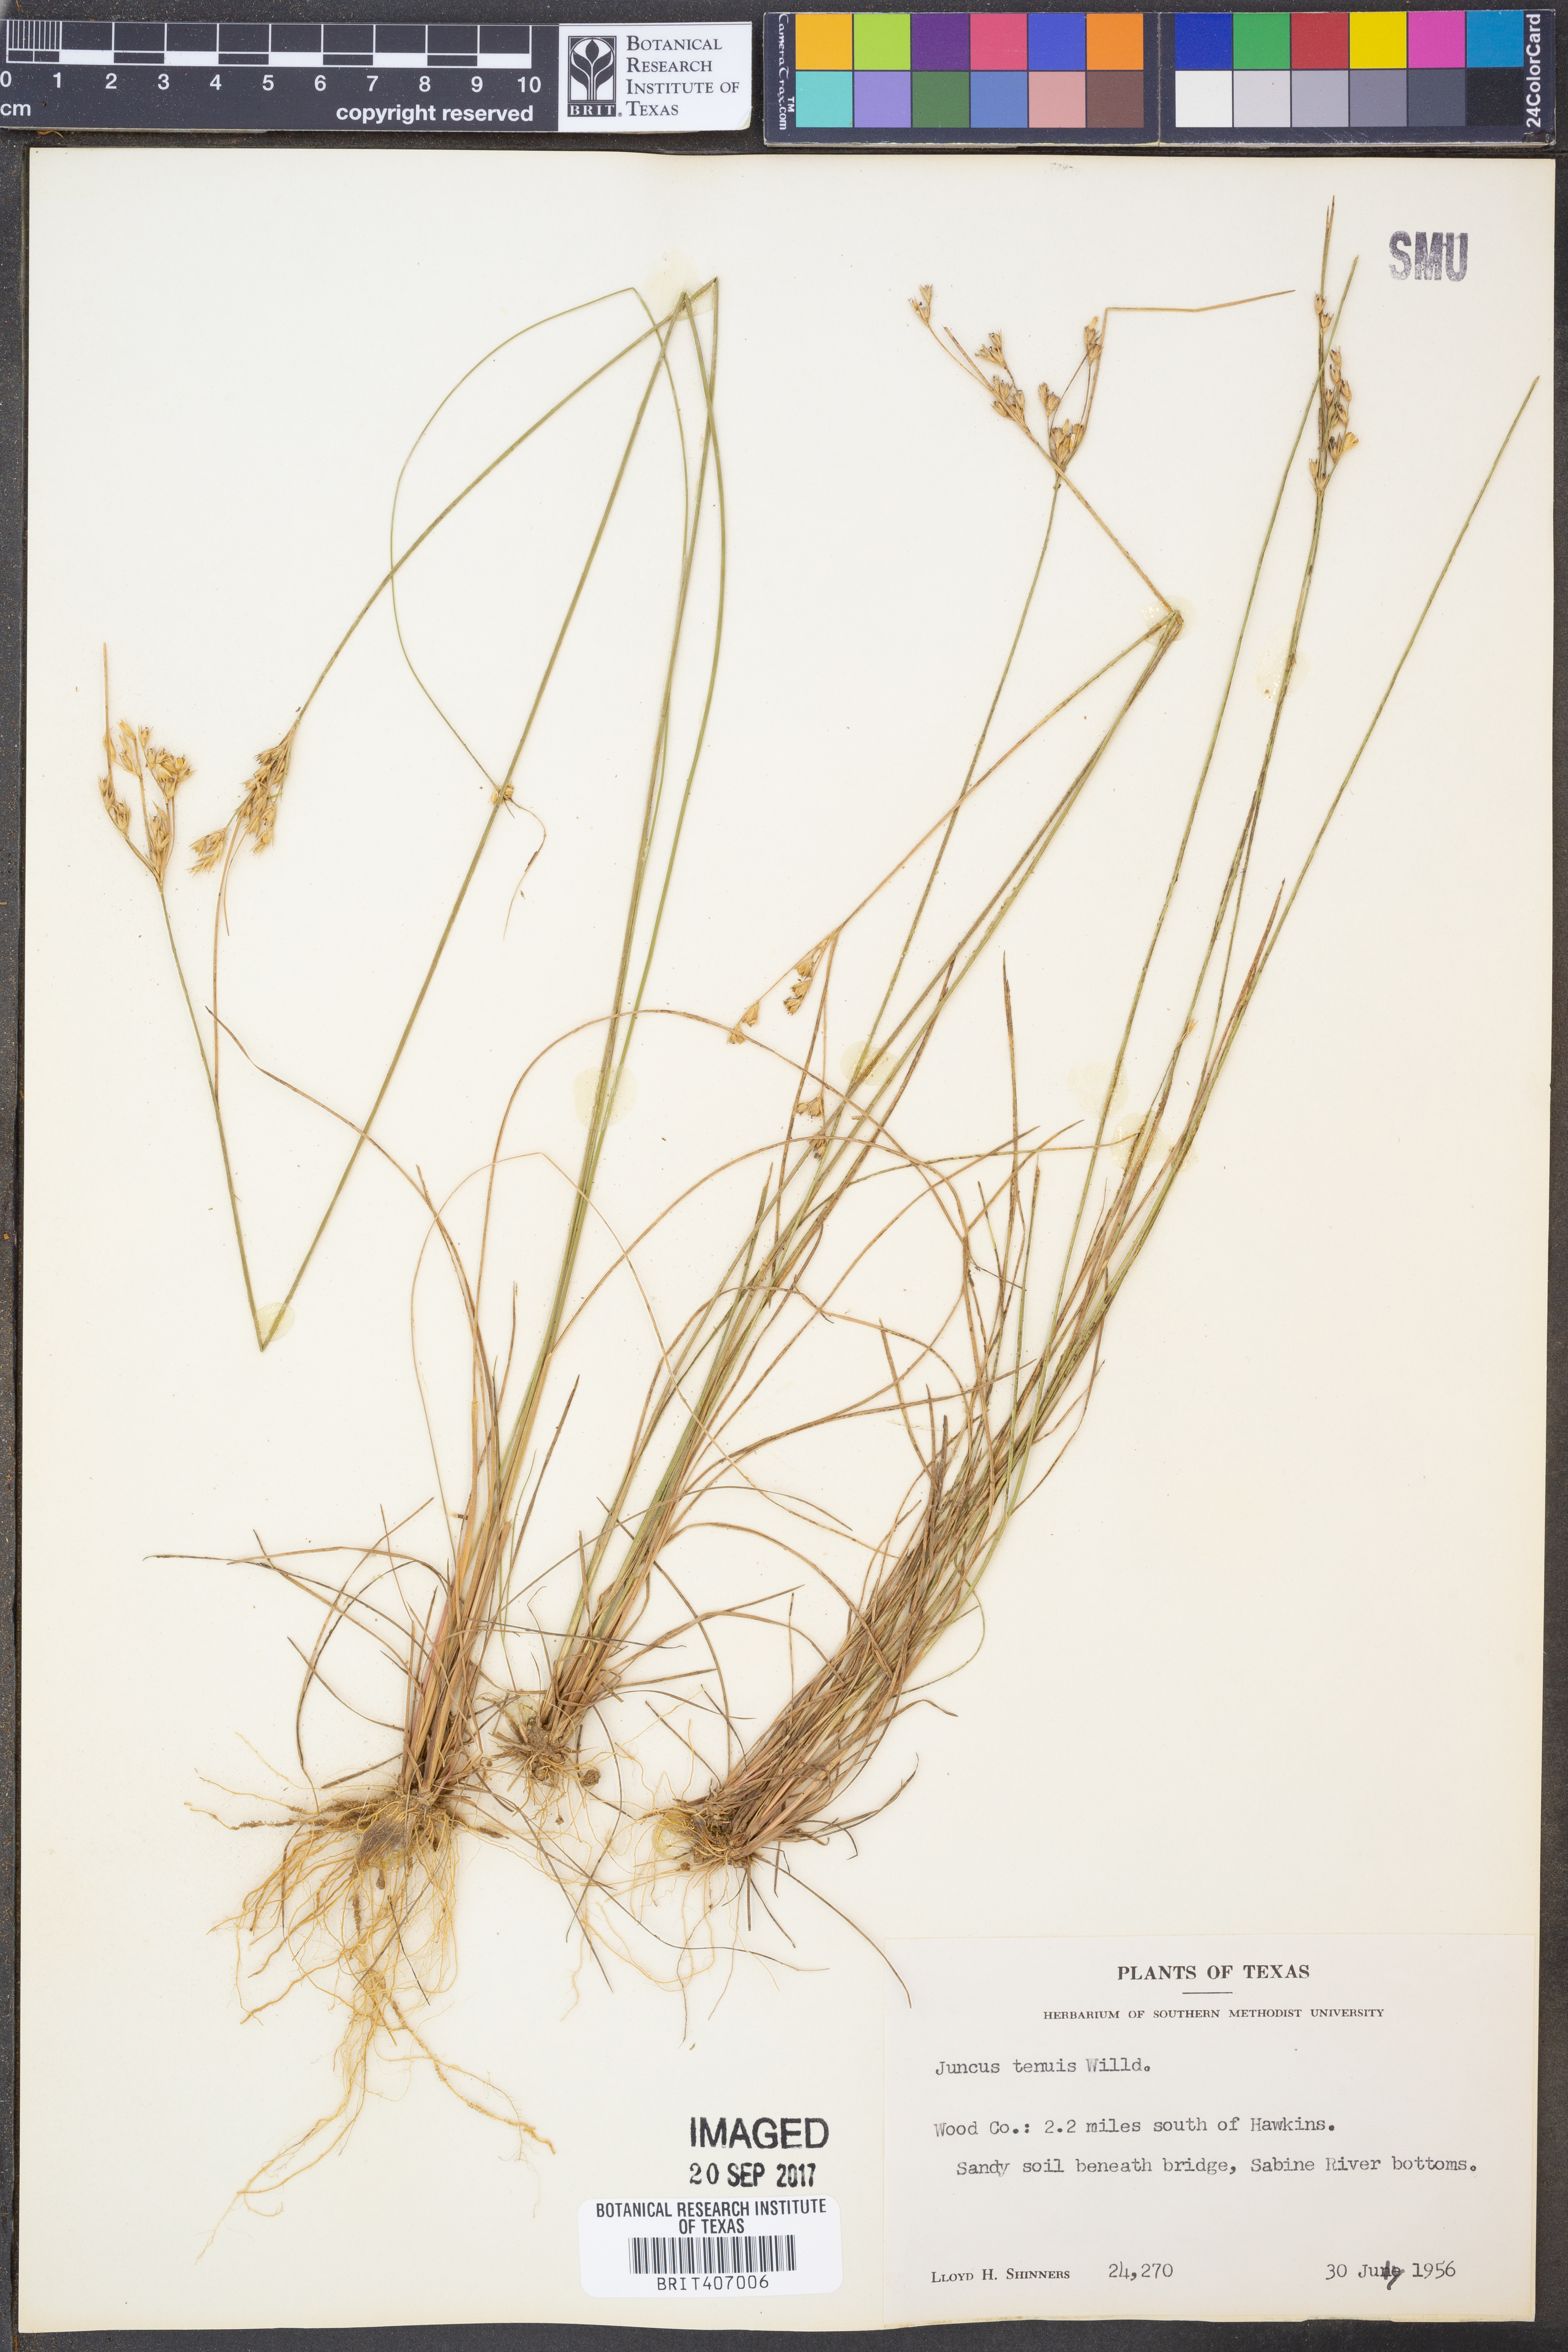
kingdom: Plantae
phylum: Tracheophyta
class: Liliopsida
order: Poales
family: Juncaceae
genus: Juncus
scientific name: Juncus tenuis
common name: Slender rush
